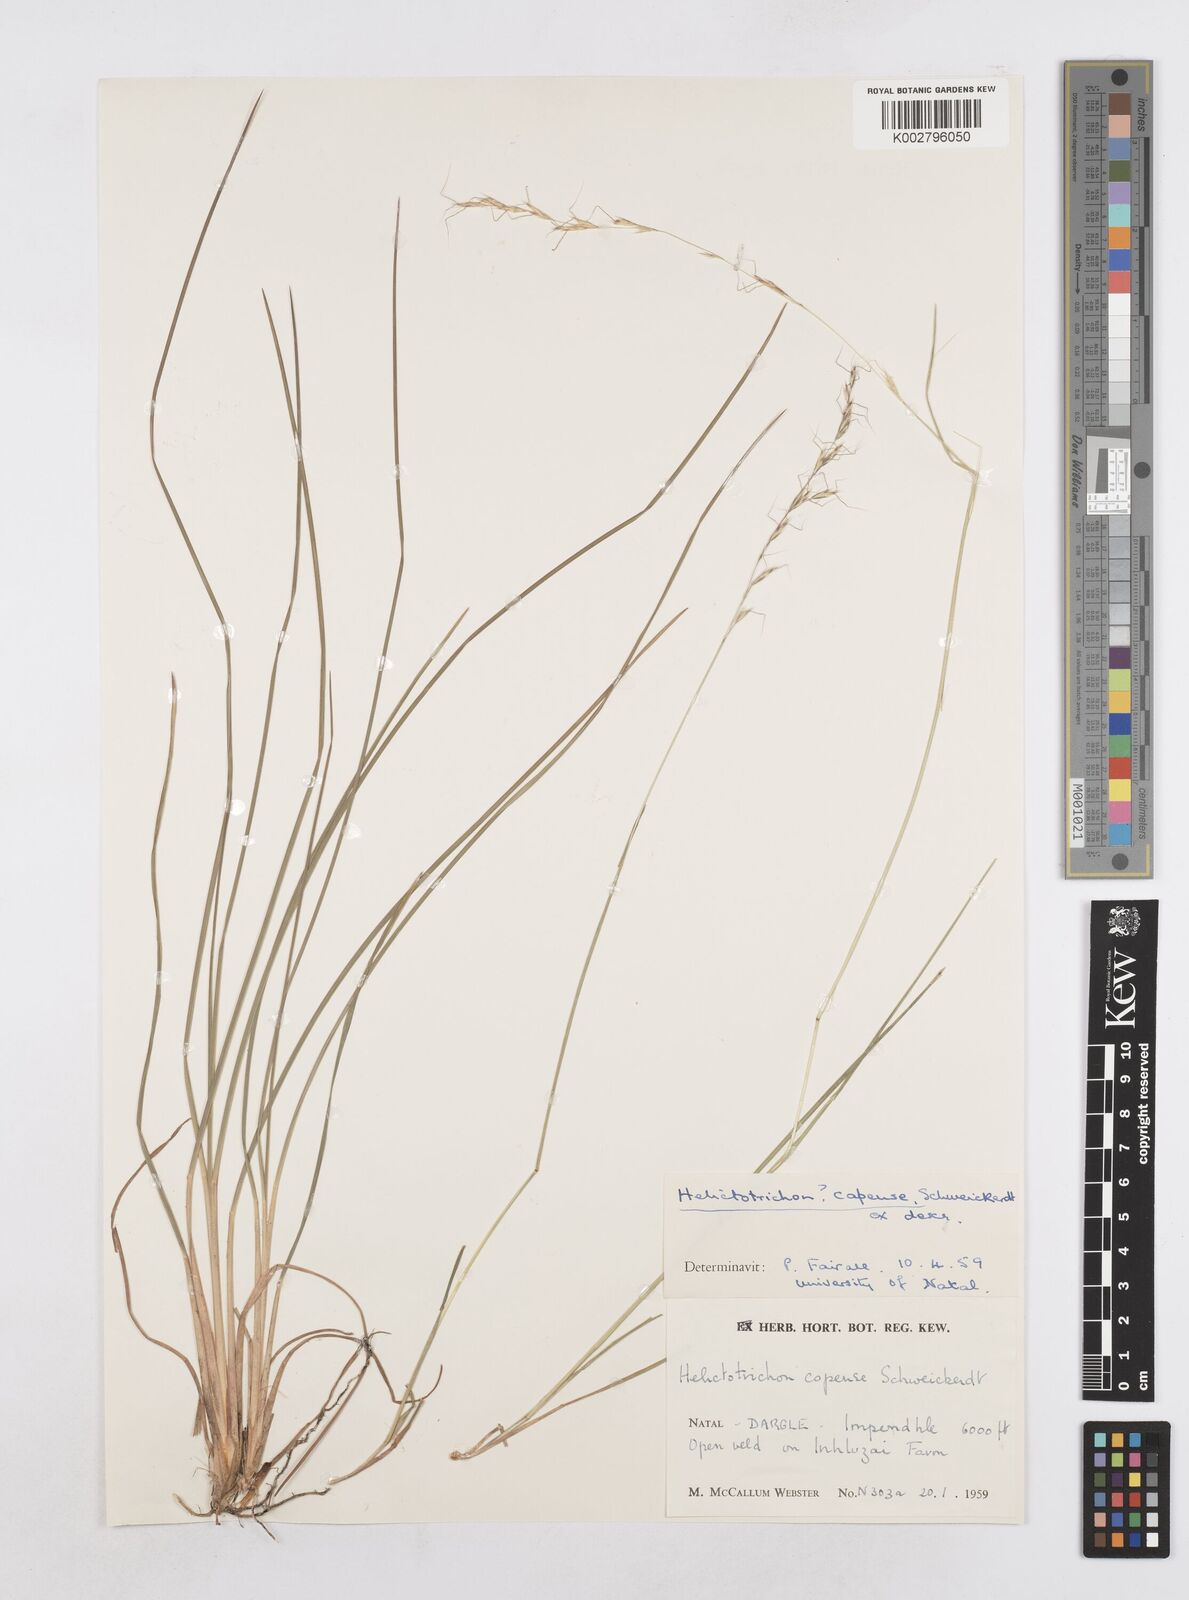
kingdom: Plantae
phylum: Tracheophyta
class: Liliopsida
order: Poales
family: Poaceae
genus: Trisetopsis
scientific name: Trisetopsis capensis
